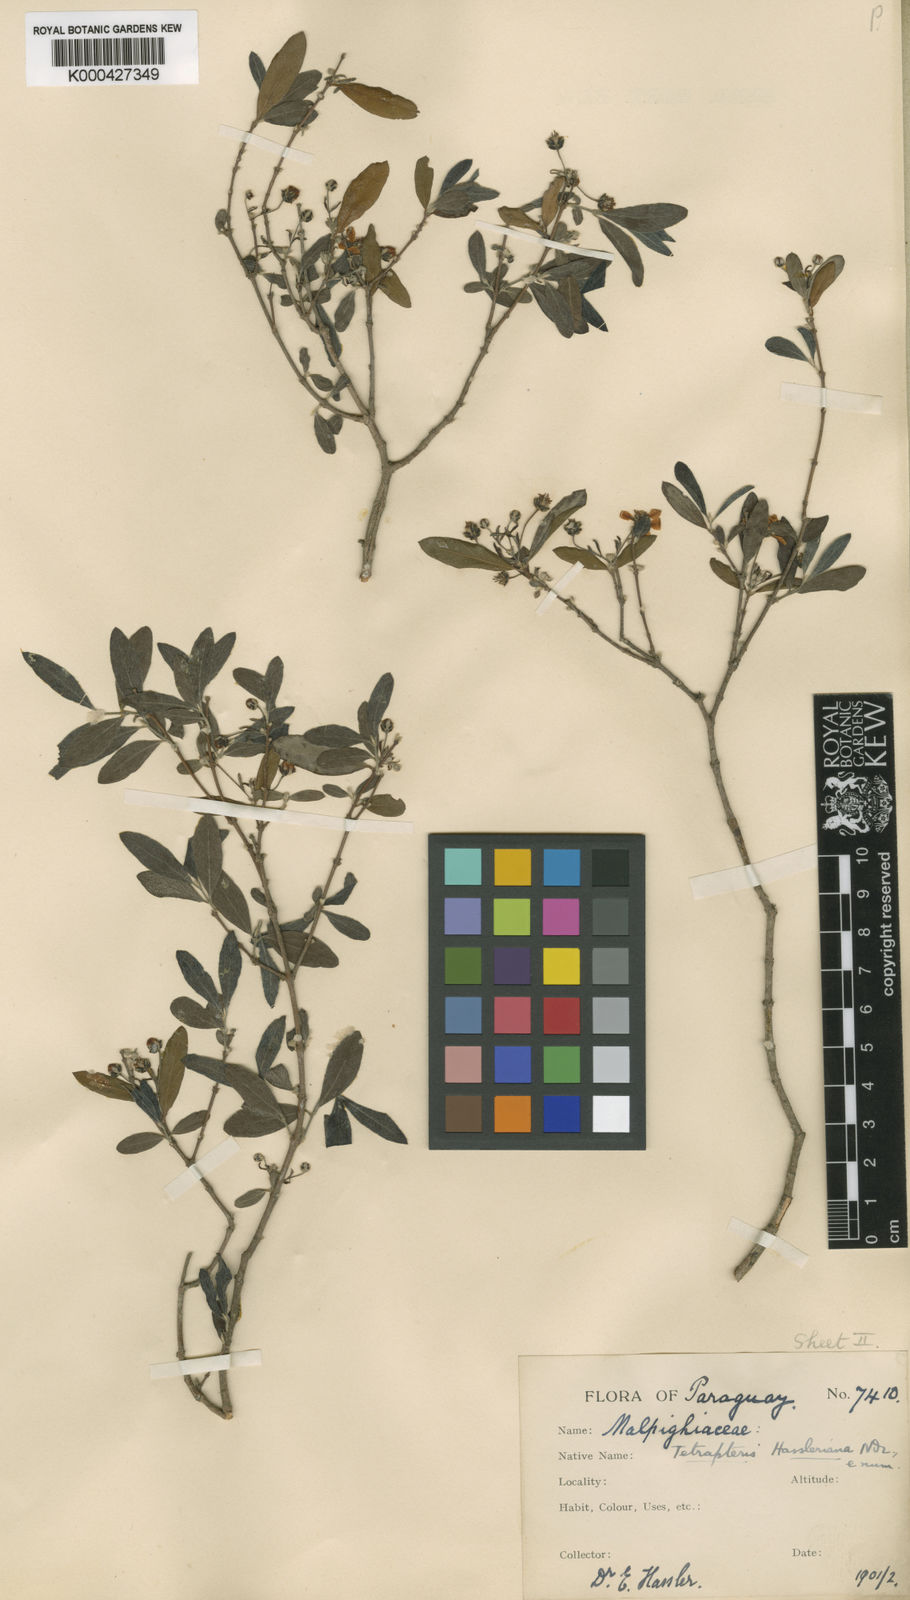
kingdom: Plantae
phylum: Tracheophyta
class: Magnoliopsida
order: Malpighiales
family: Malpighiaceae
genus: Glicophyllum
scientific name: Glicophyllum hasslerianum
